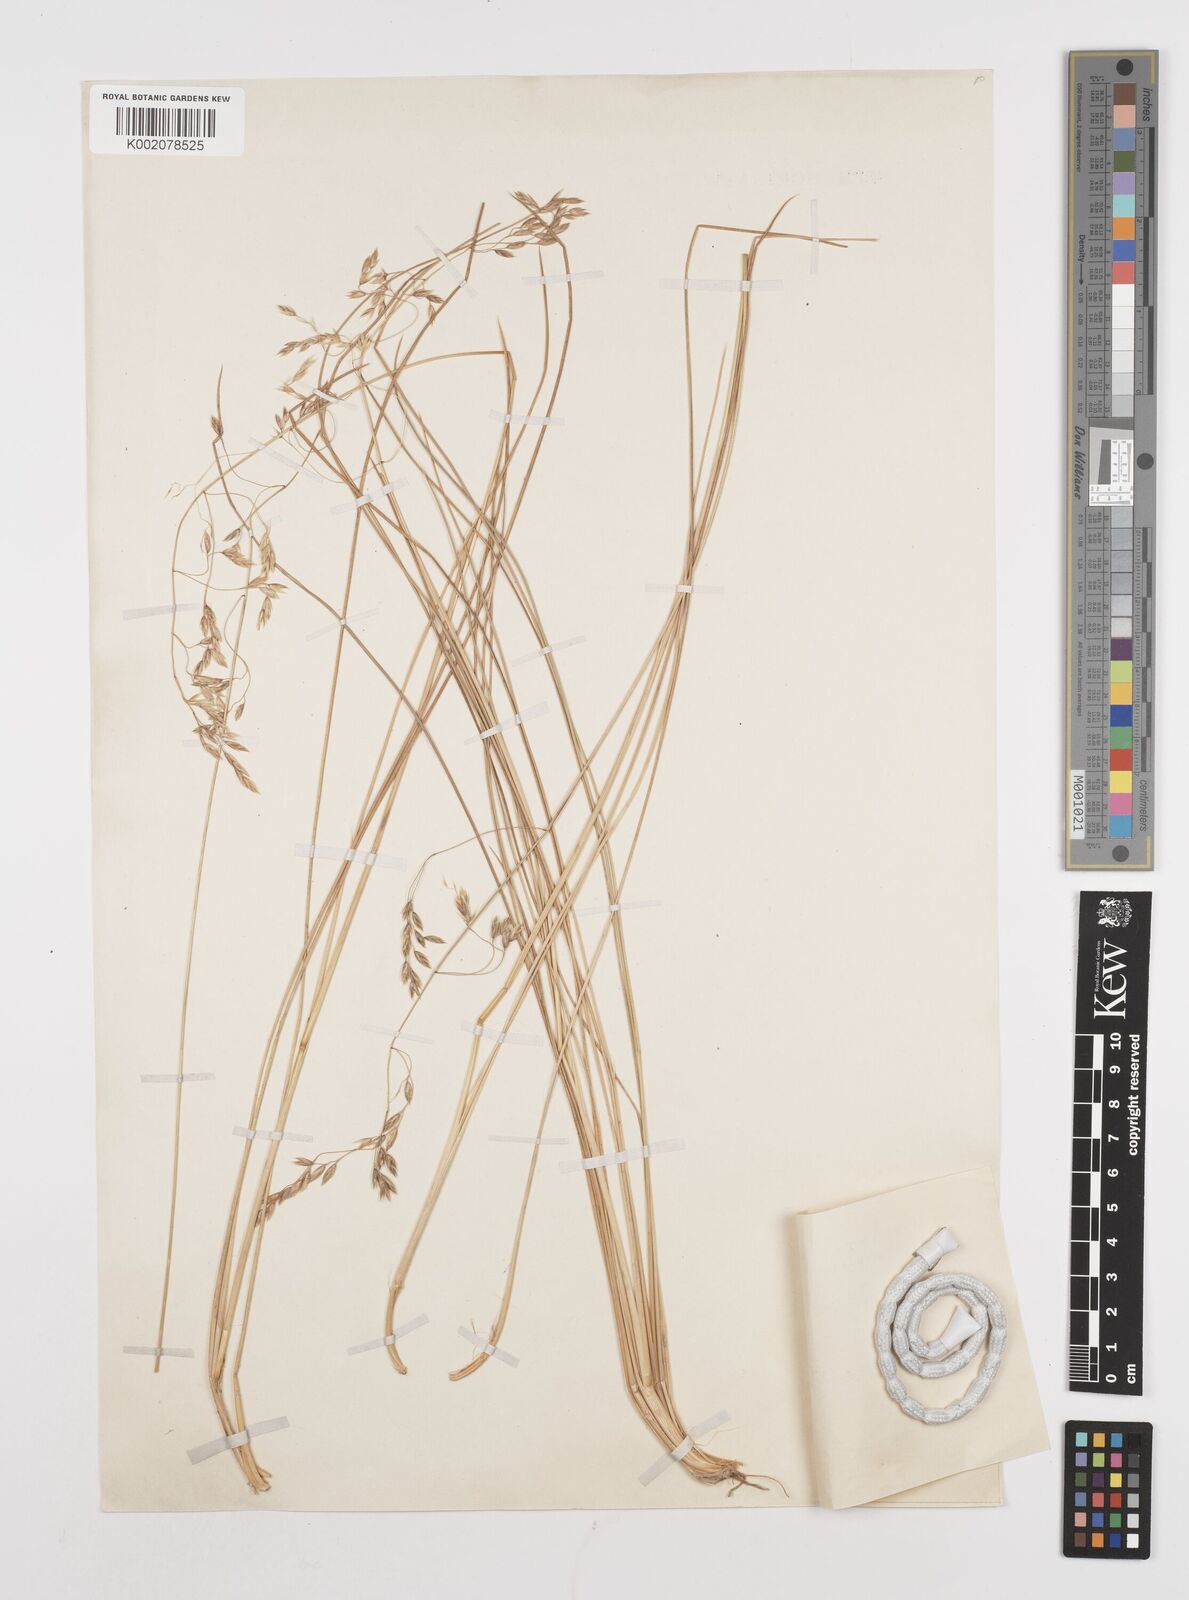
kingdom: Plantae
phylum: Tracheophyta
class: Liliopsida
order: Poales
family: Poaceae
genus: Poa
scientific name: Poa
